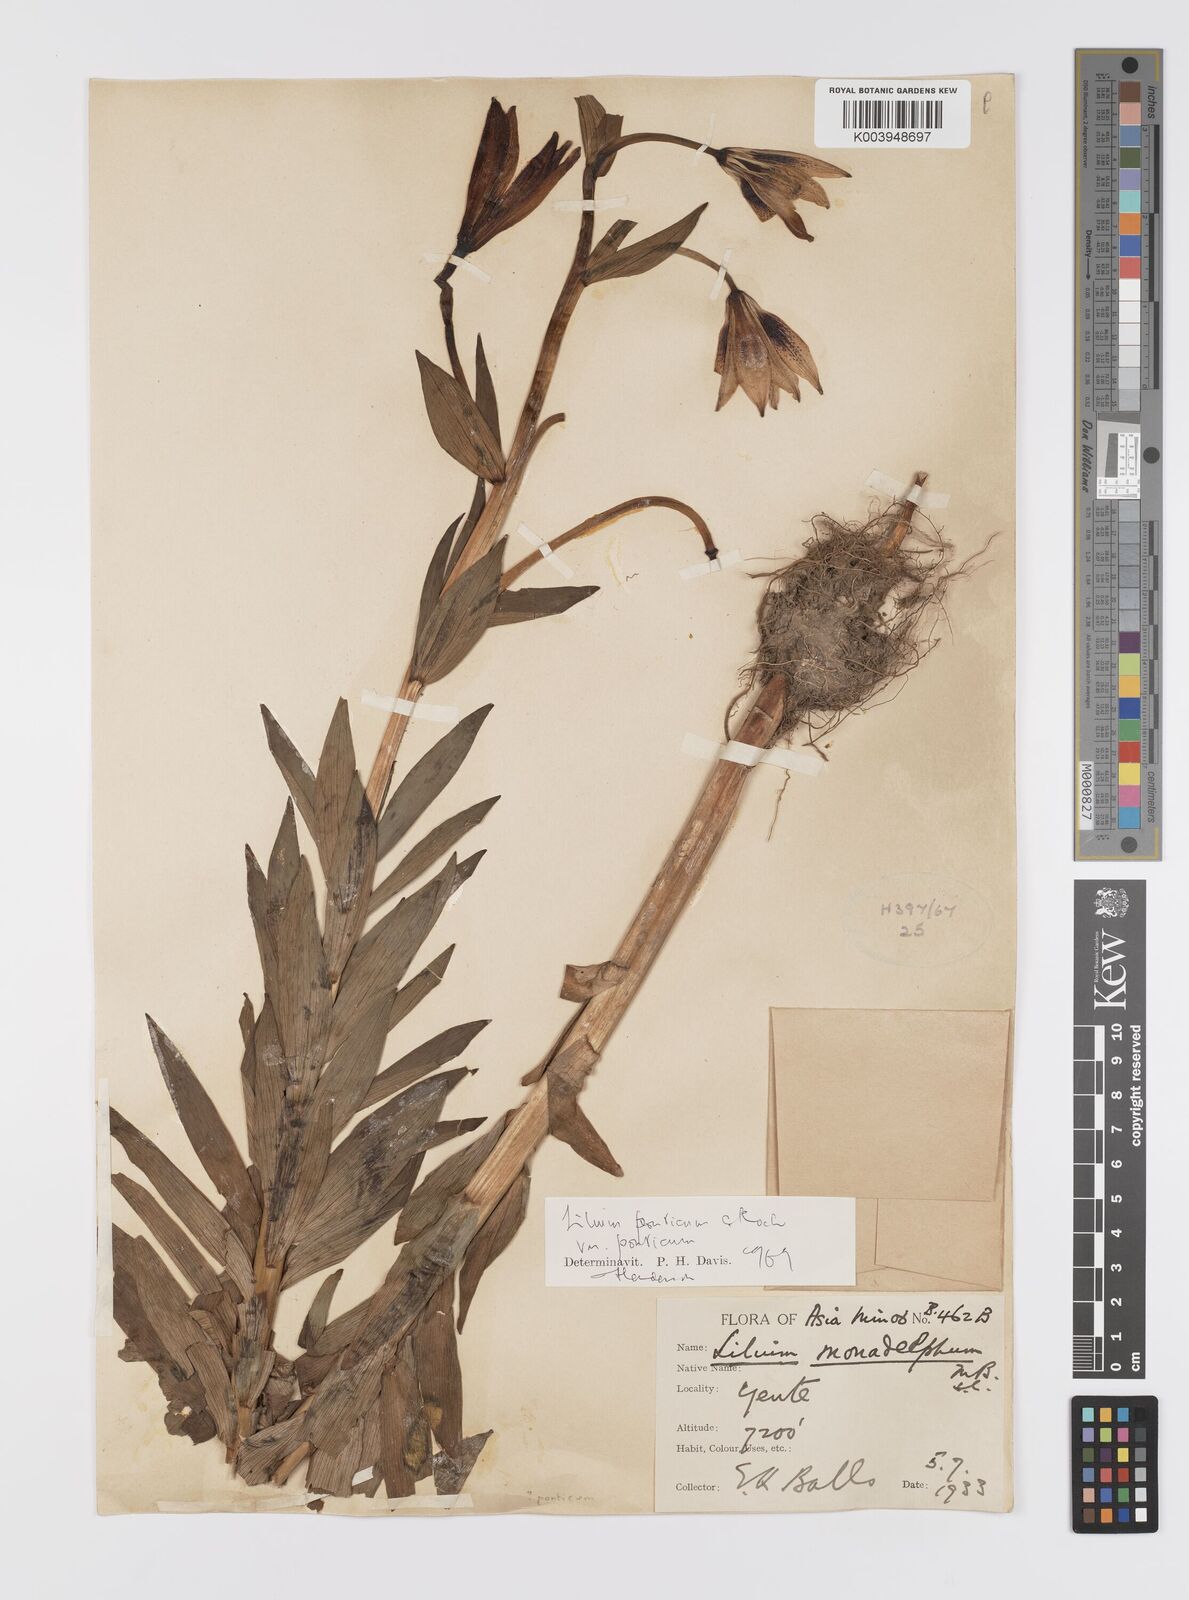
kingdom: Plantae
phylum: Tracheophyta
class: Liliopsida
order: Liliales
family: Liliaceae
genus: Lilium
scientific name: Lilium ponticum
